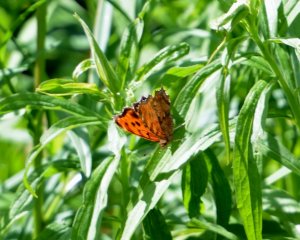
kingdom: Animalia
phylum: Arthropoda
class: Insecta
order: Lepidoptera
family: Nymphalidae
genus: Polygonia
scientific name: Polygonia comma
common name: Eastern Comma
